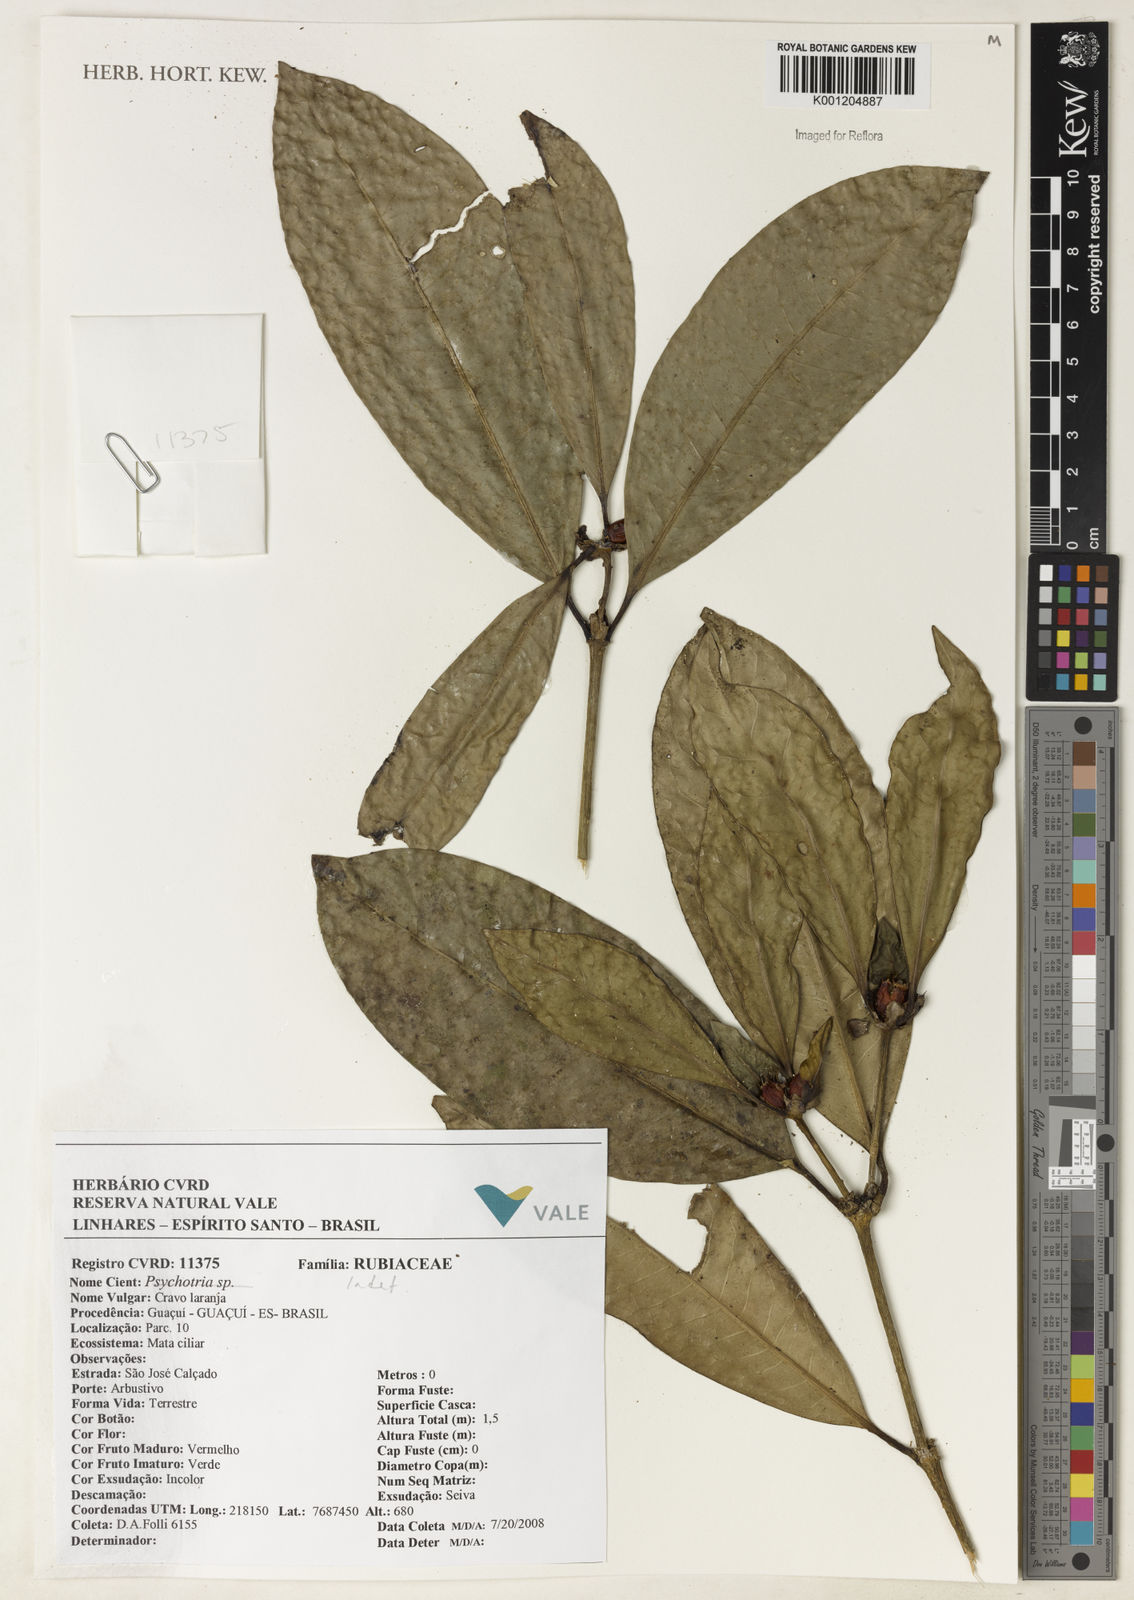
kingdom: Plantae
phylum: Tracheophyta
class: Magnoliopsida
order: Gentianales
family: Rubiaceae
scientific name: Rubiaceae
